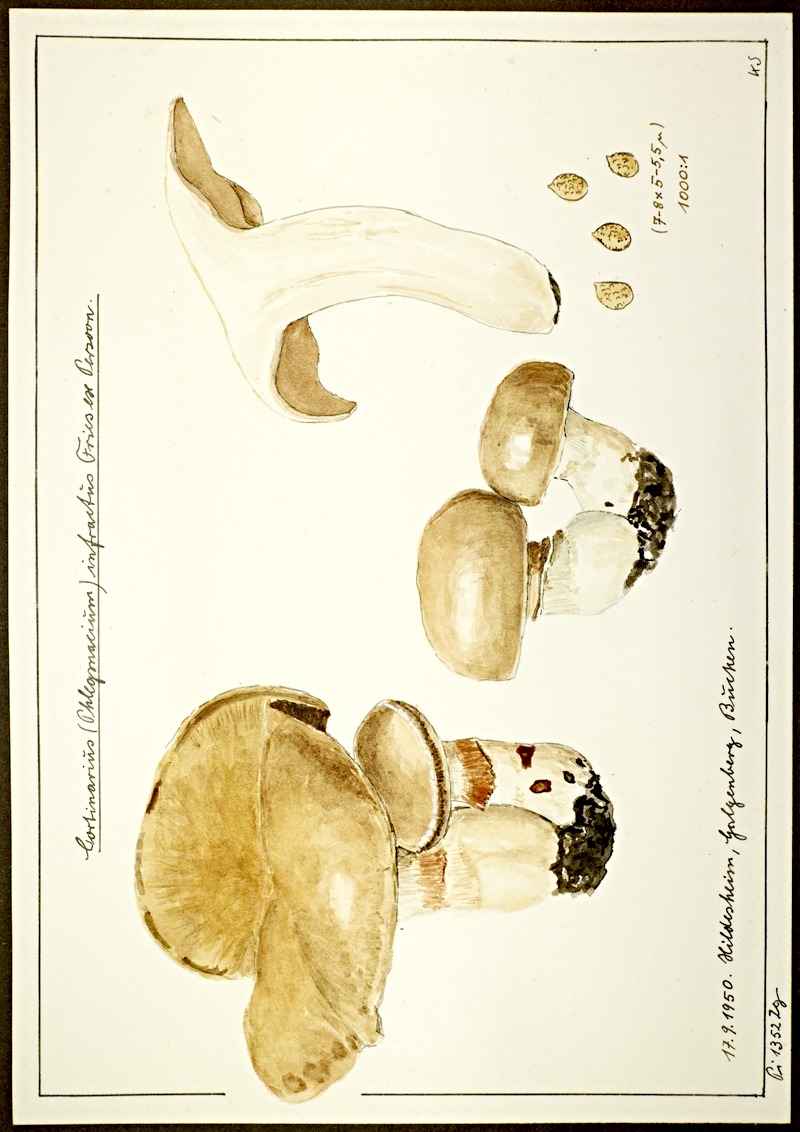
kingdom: Fungi
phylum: Basidiomycota
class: Agaricomycetes
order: Agaricales
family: Cortinariaceae
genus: Cortinarius
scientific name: Cortinarius infractus
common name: Bitter webcap
